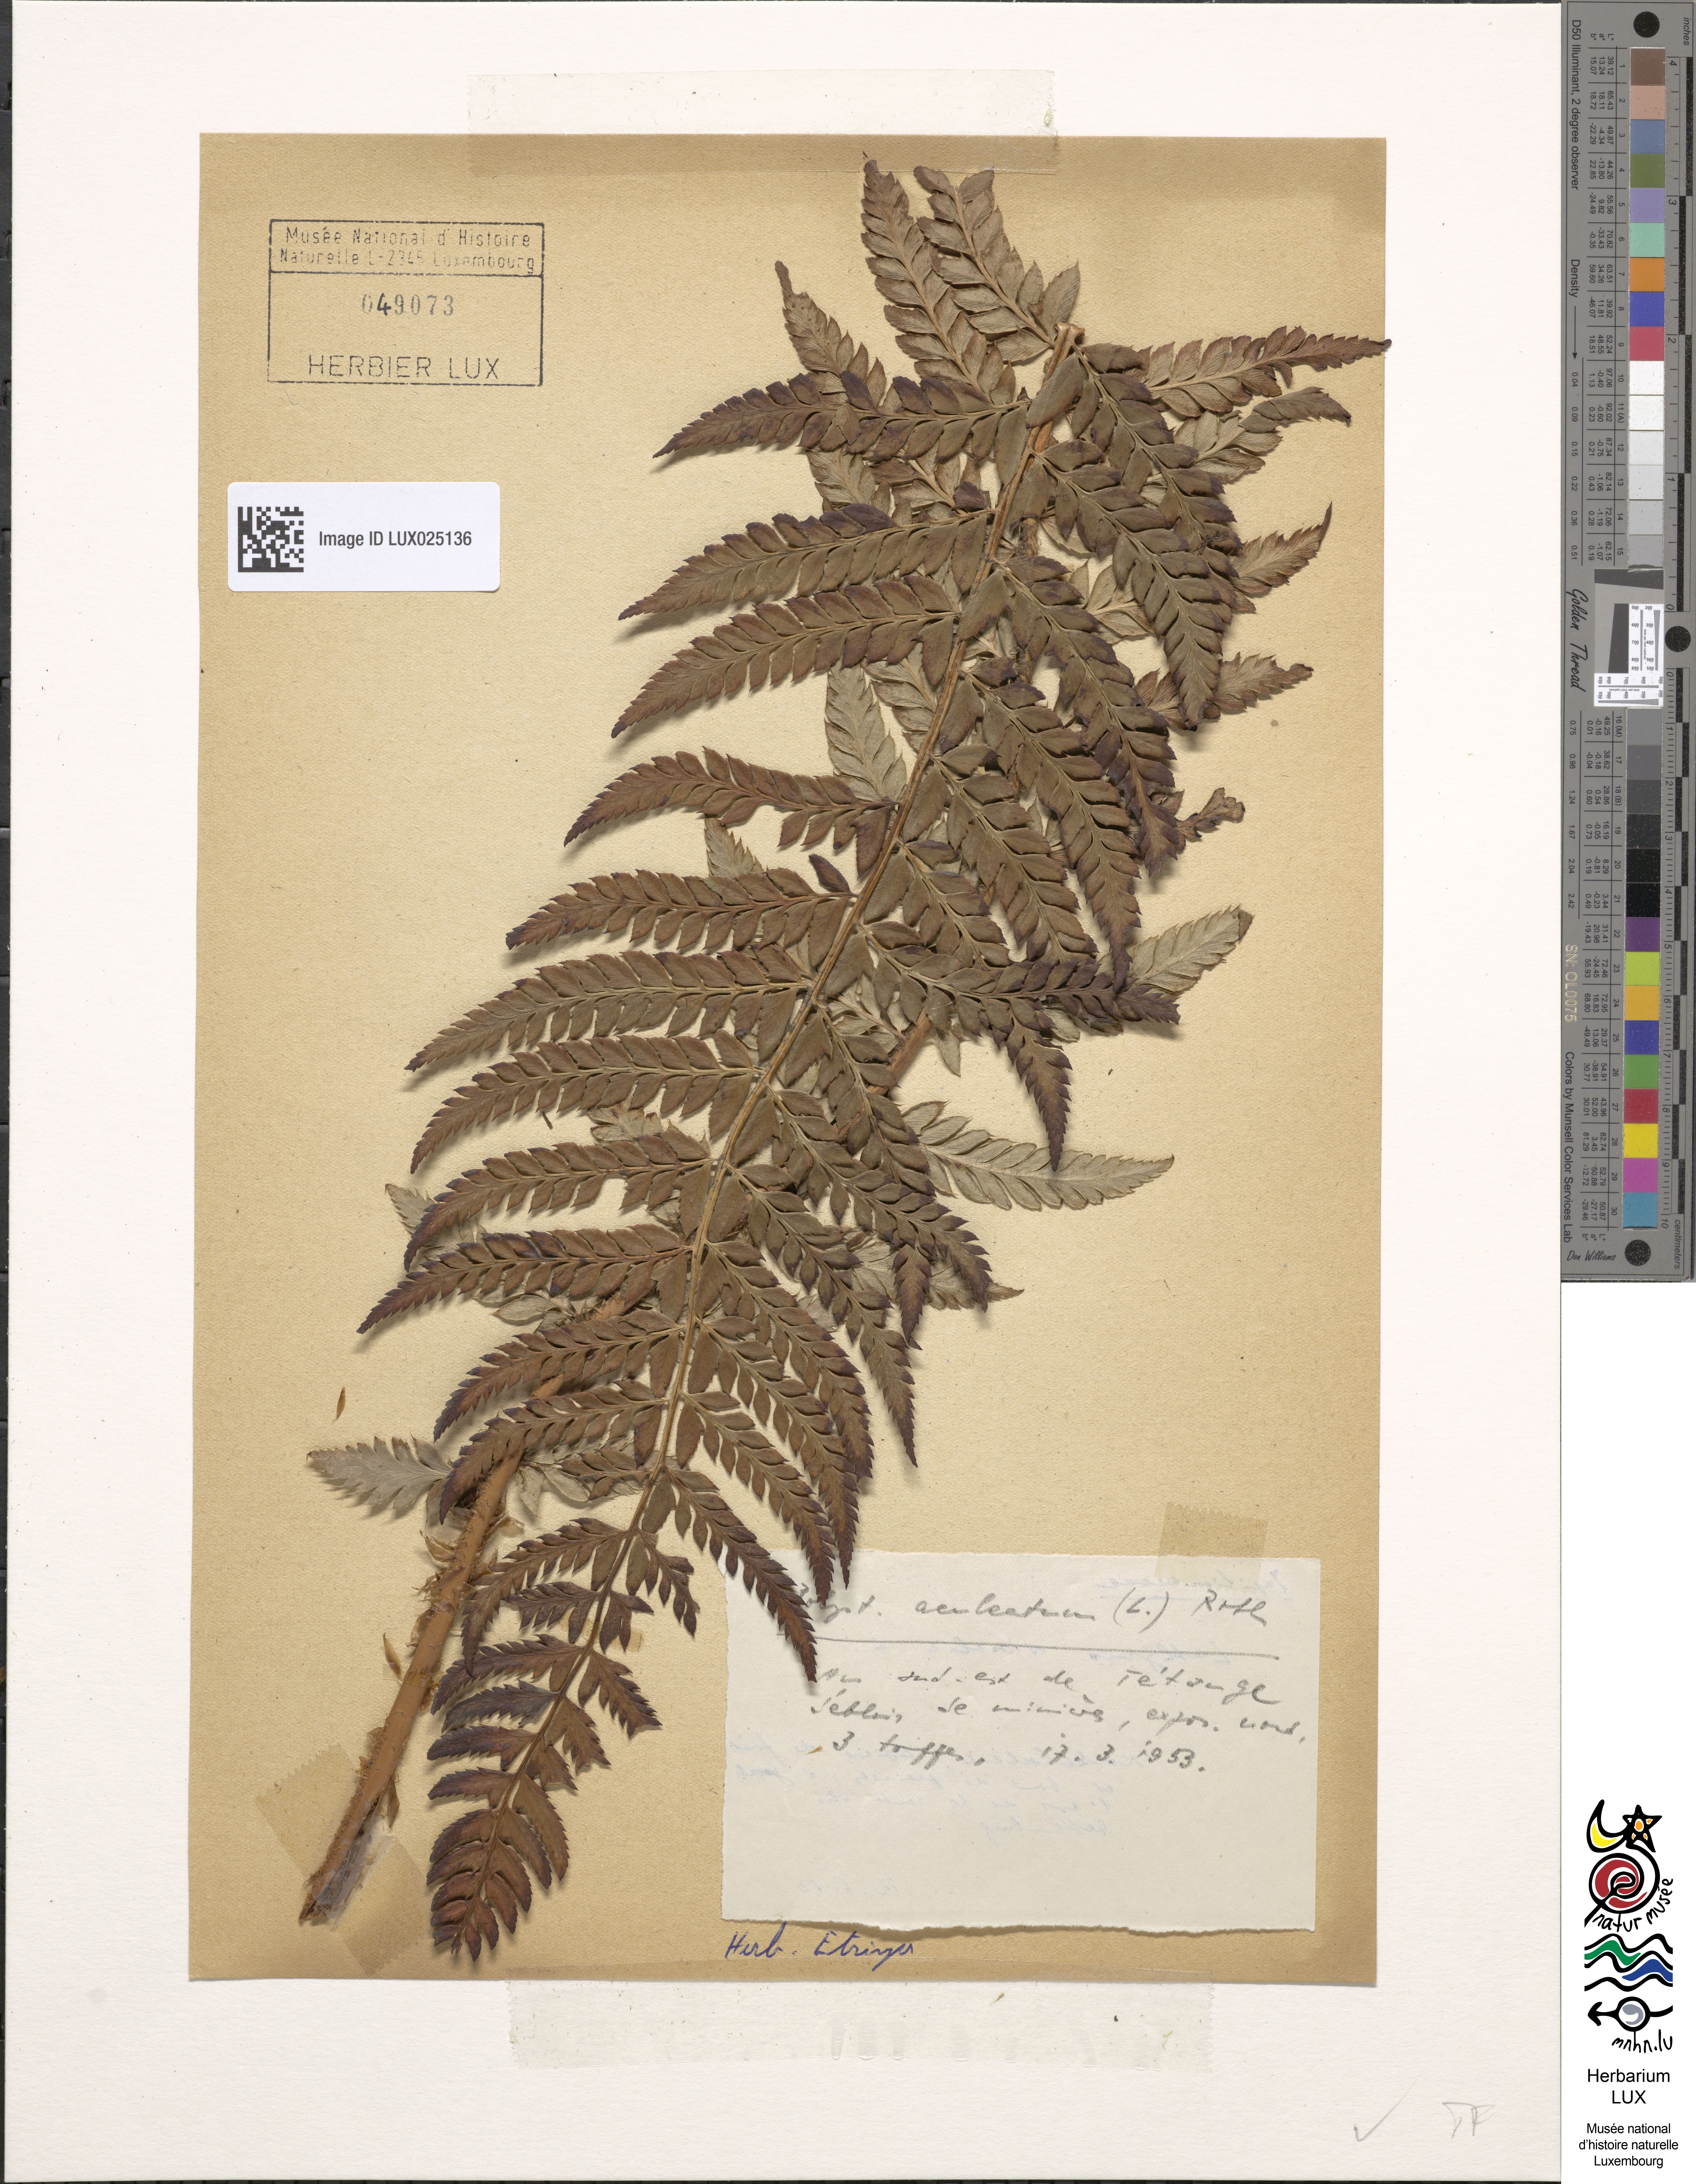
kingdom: Plantae
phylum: Tracheophyta
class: Polypodiopsida
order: Polypodiales
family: Dryopteridaceae
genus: Polystichum
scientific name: Polystichum aculeatum
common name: Hard shield-fern
